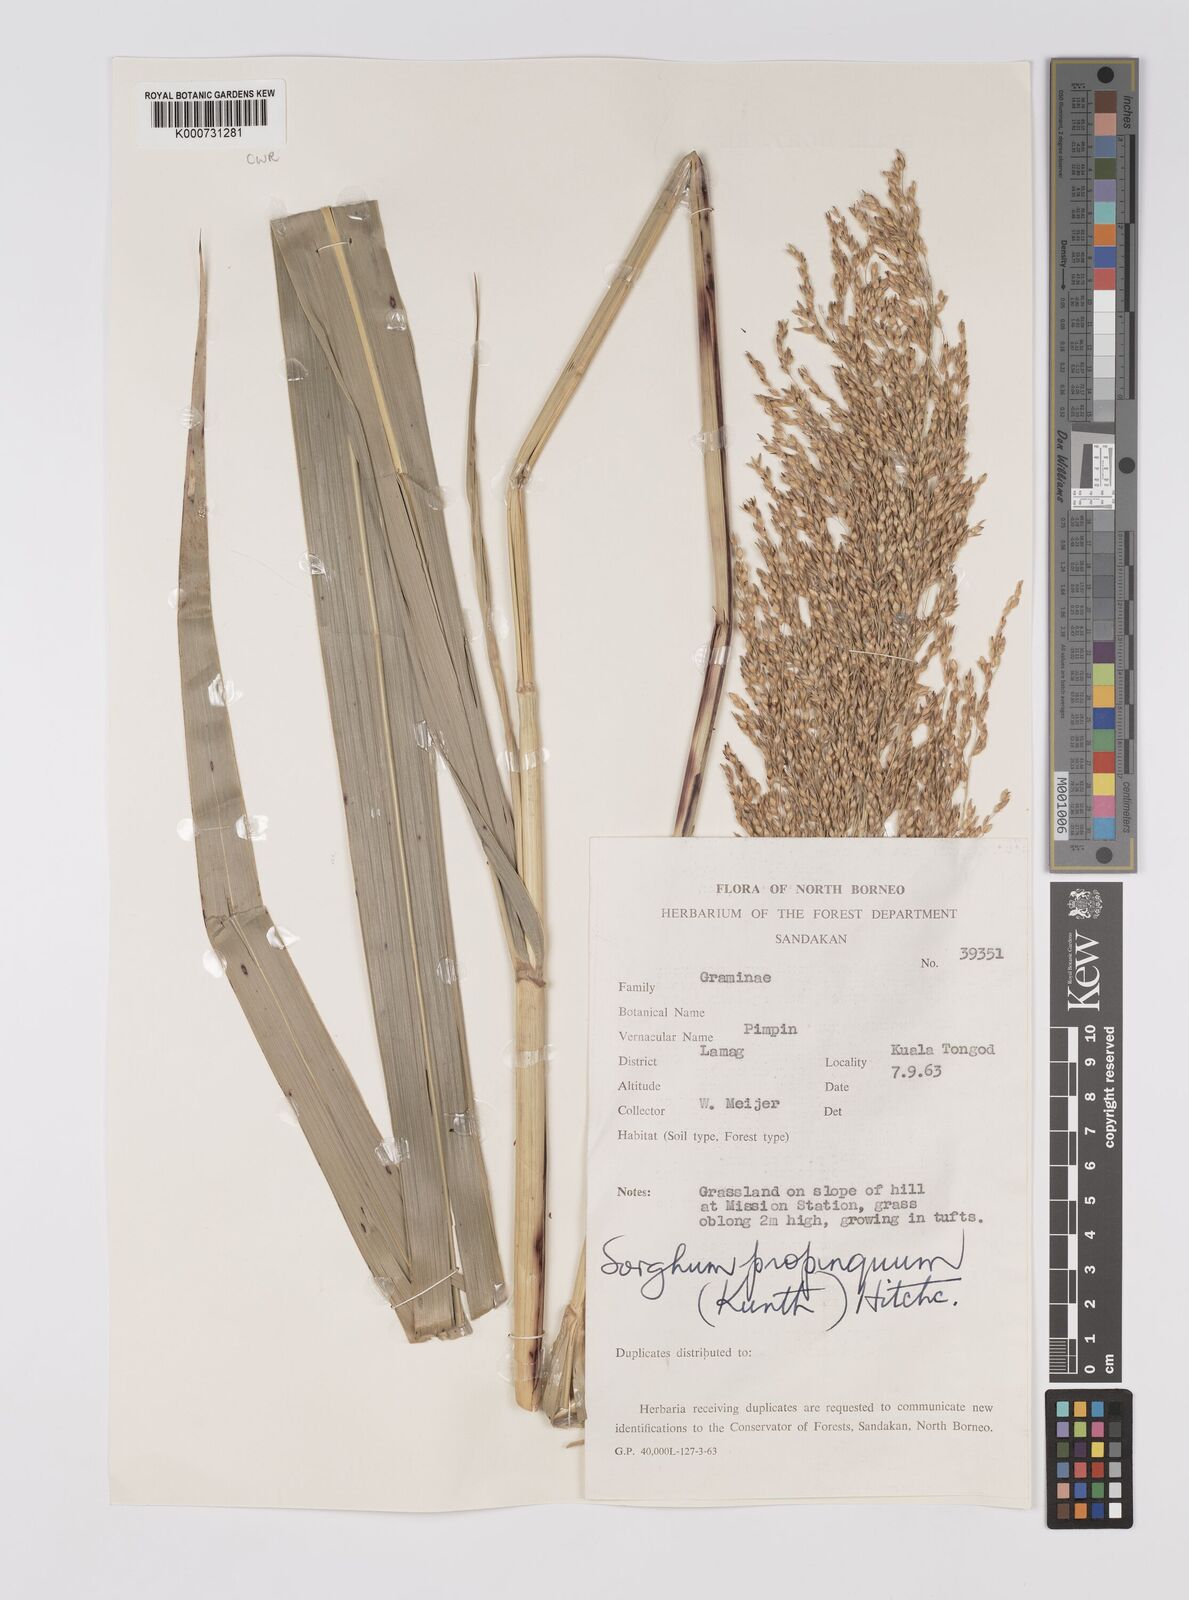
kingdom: Plantae
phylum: Tracheophyta
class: Liliopsida
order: Poales
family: Poaceae
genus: Sorghum
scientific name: Sorghum propinquum
